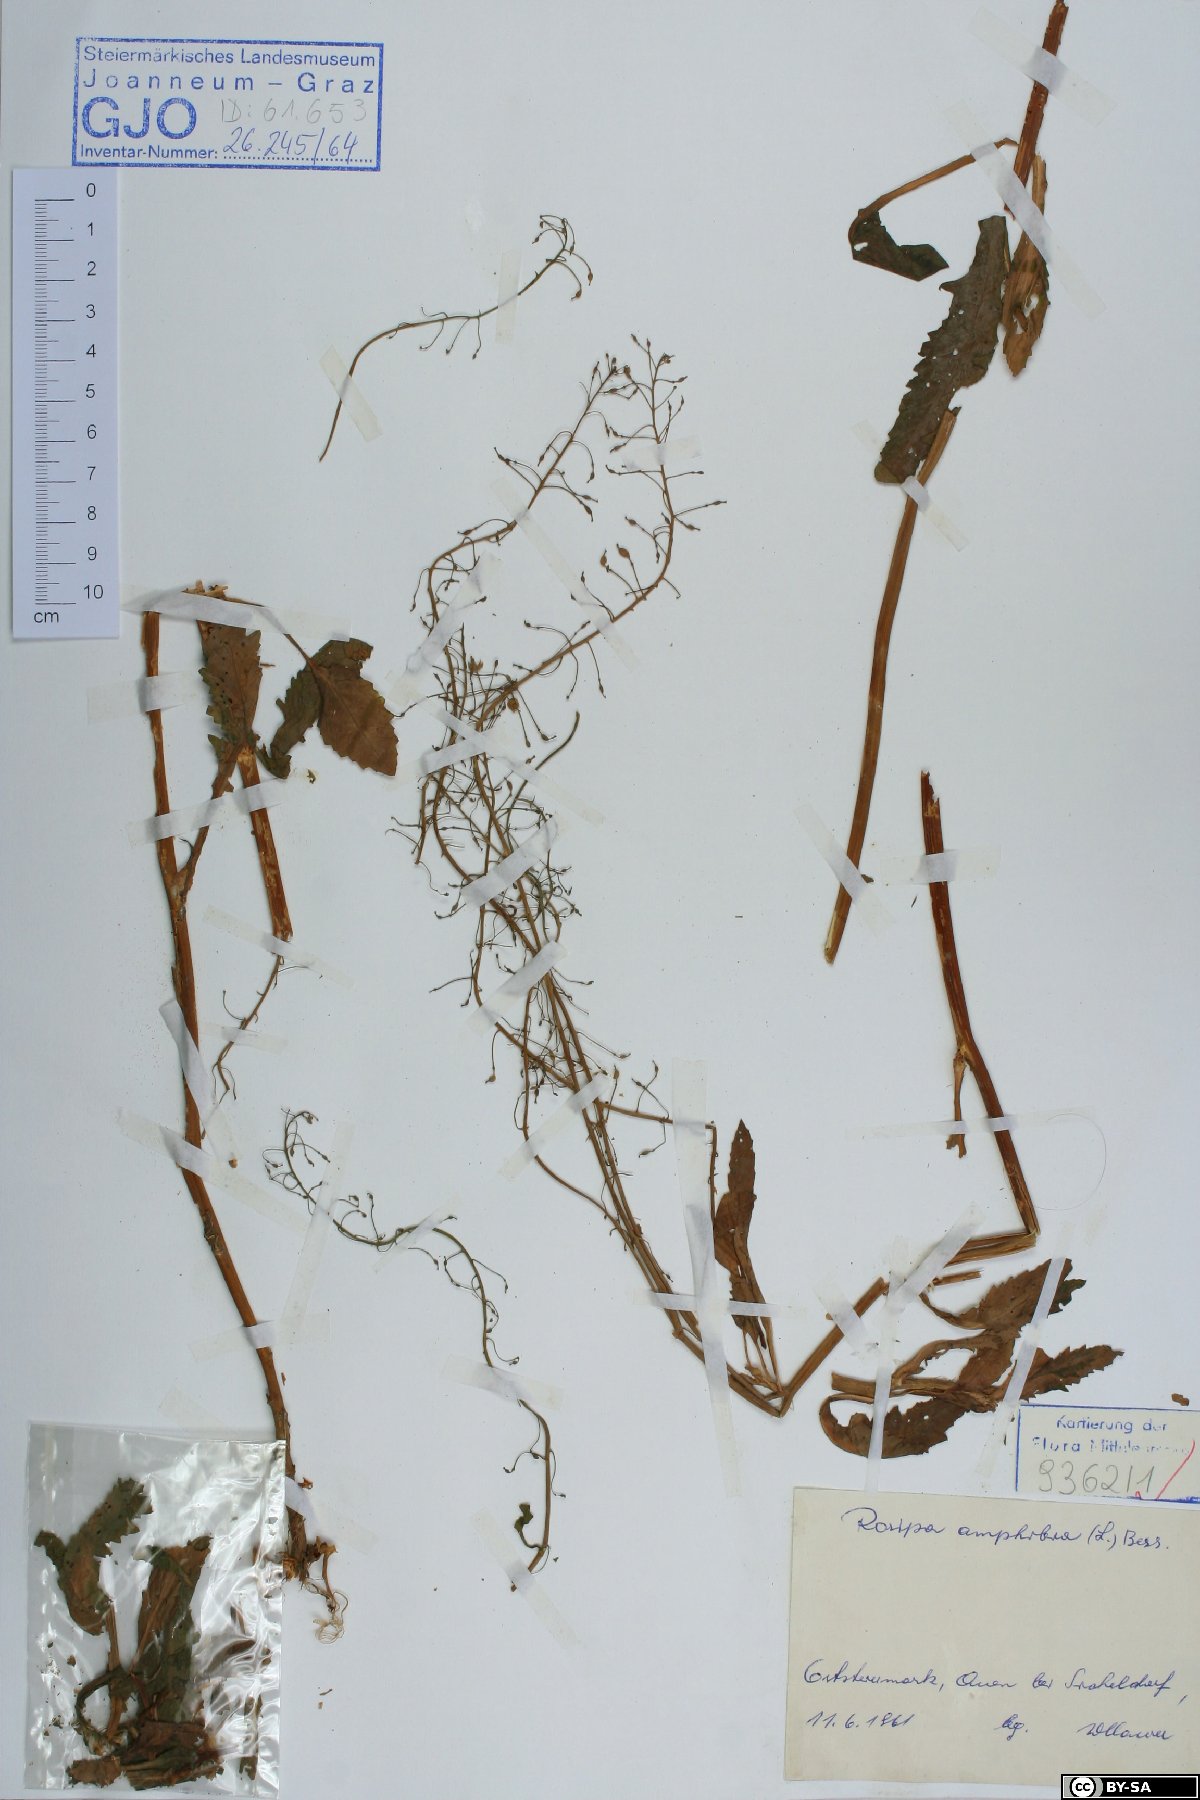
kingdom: Plantae
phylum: Tracheophyta
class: Magnoliopsida
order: Brassicales
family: Brassicaceae
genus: Rorippa
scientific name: Rorippa amphibia
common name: Great yellow-cress
